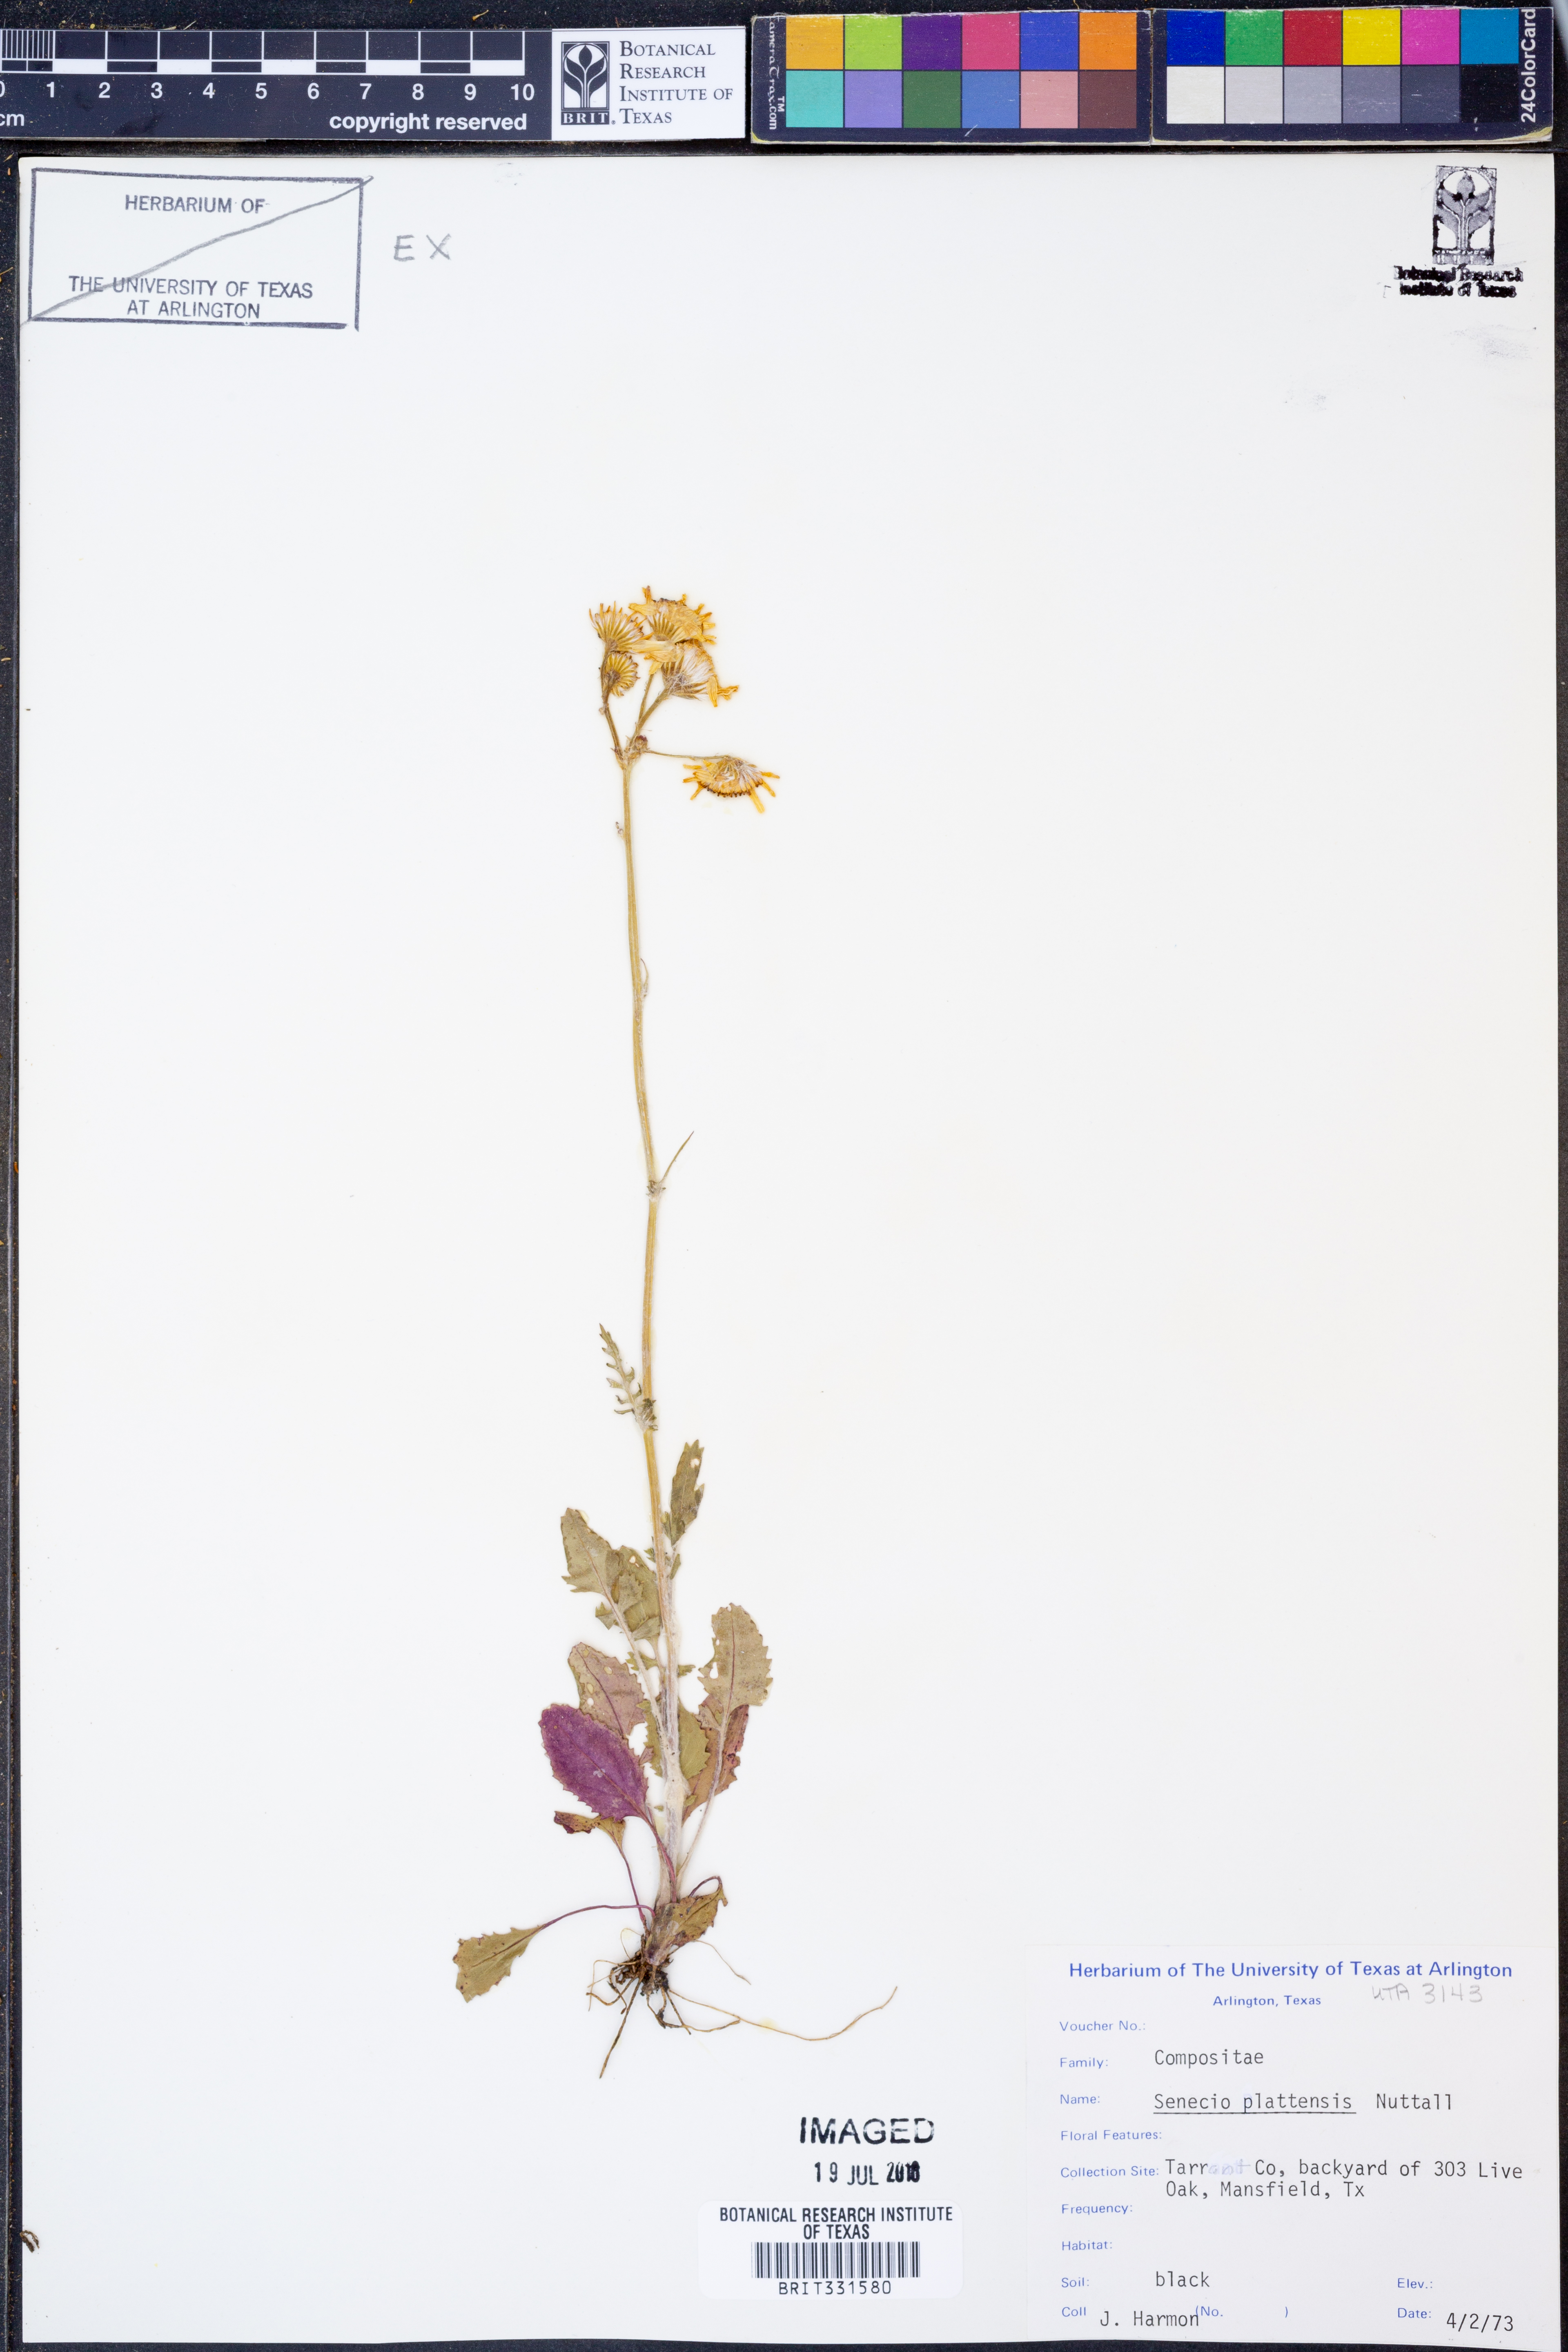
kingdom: Plantae
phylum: Tracheophyta
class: Magnoliopsida
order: Asterales
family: Asteraceae
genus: Packera
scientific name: Packera plattensis
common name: Prairie groundsel
